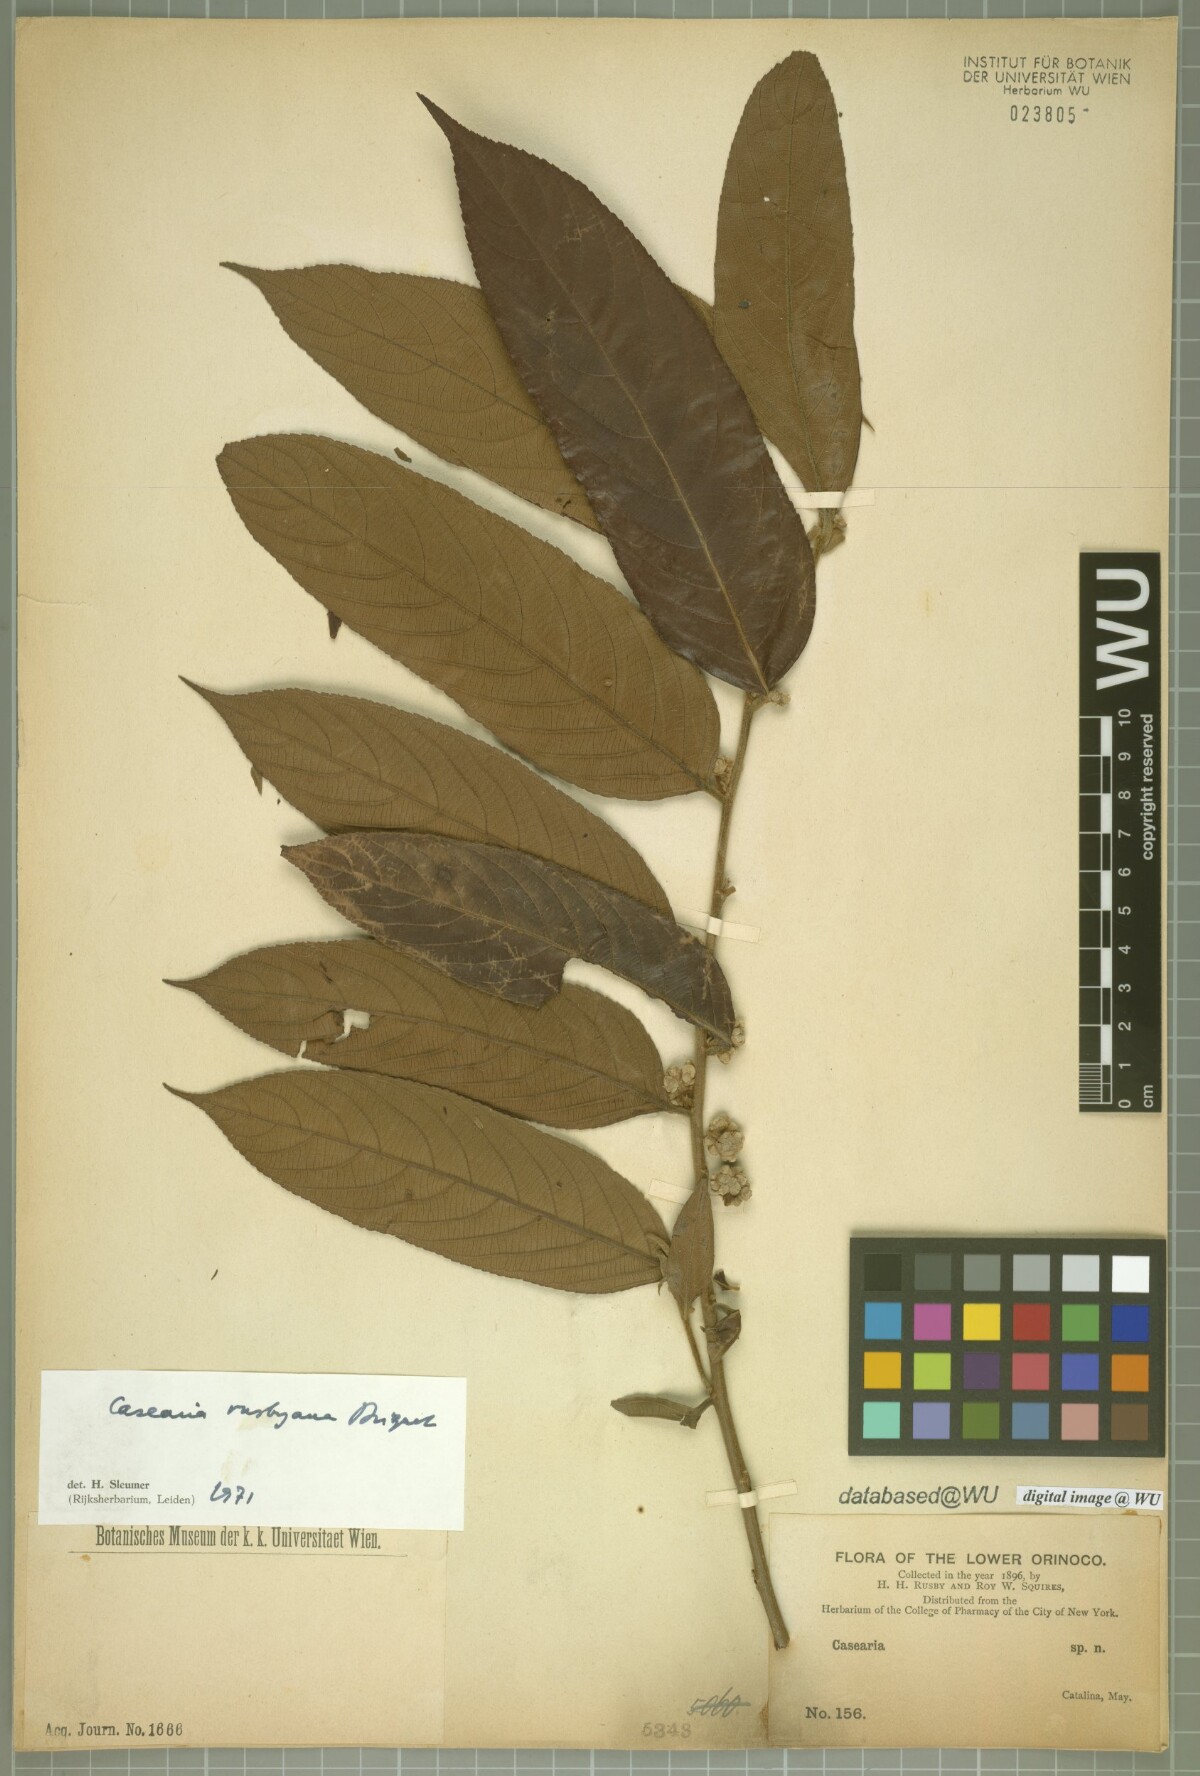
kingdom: Plantae
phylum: Tracheophyta
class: Magnoliopsida
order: Malpighiales
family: Salicaceae
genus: Casearia
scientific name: Casearia rusbyana
